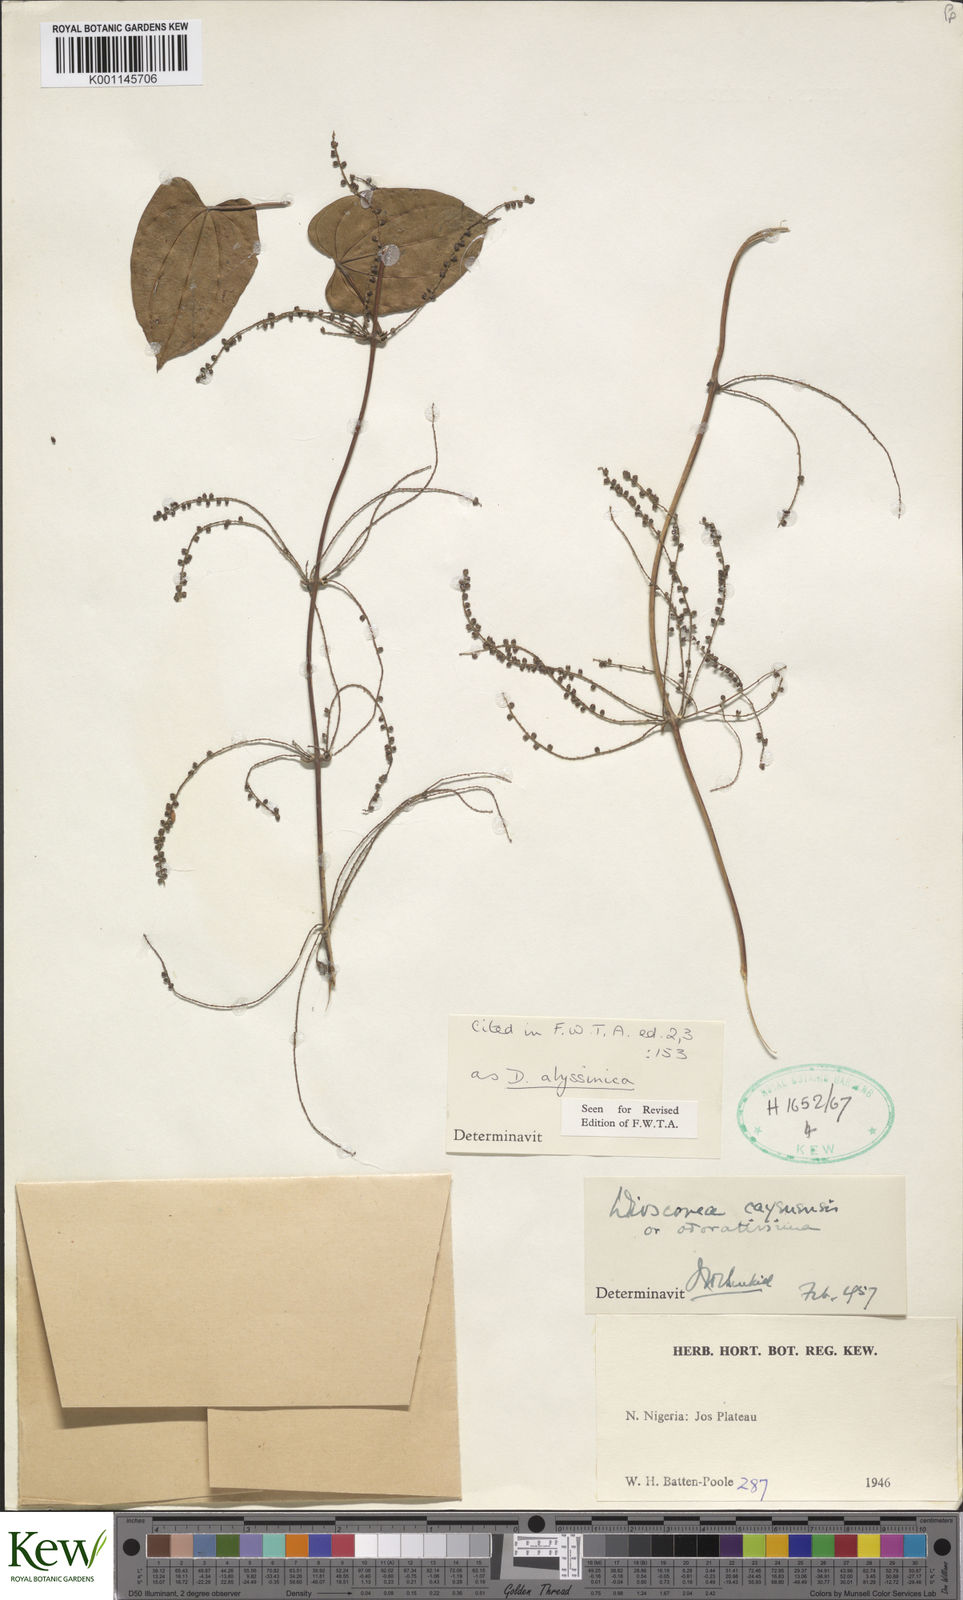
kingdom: Plantae
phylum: Tracheophyta
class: Liliopsida
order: Dioscoreales
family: Dioscoreaceae
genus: Dioscorea
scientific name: Dioscorea abyssinica
